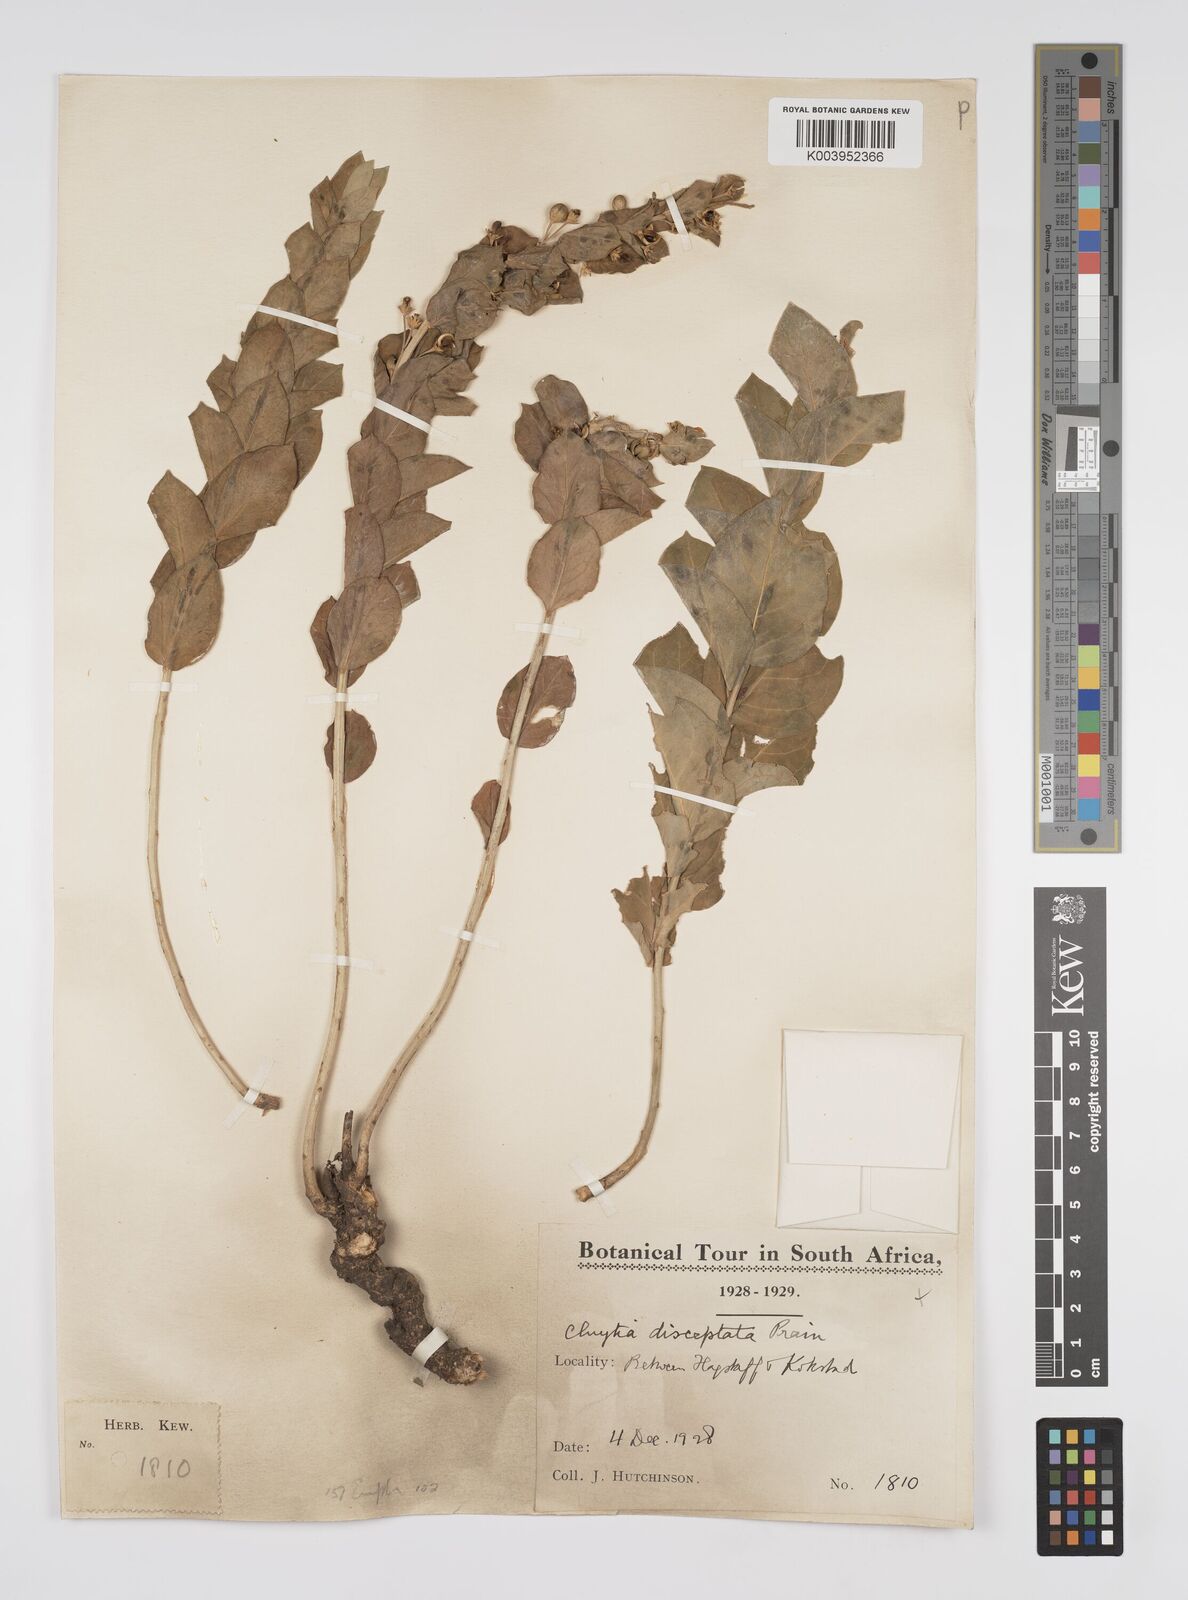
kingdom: Plantae
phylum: Tracheophyta
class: Magnoliopsida
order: Malpighiales
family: Peraceae
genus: Clutia
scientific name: Clutia cordata
